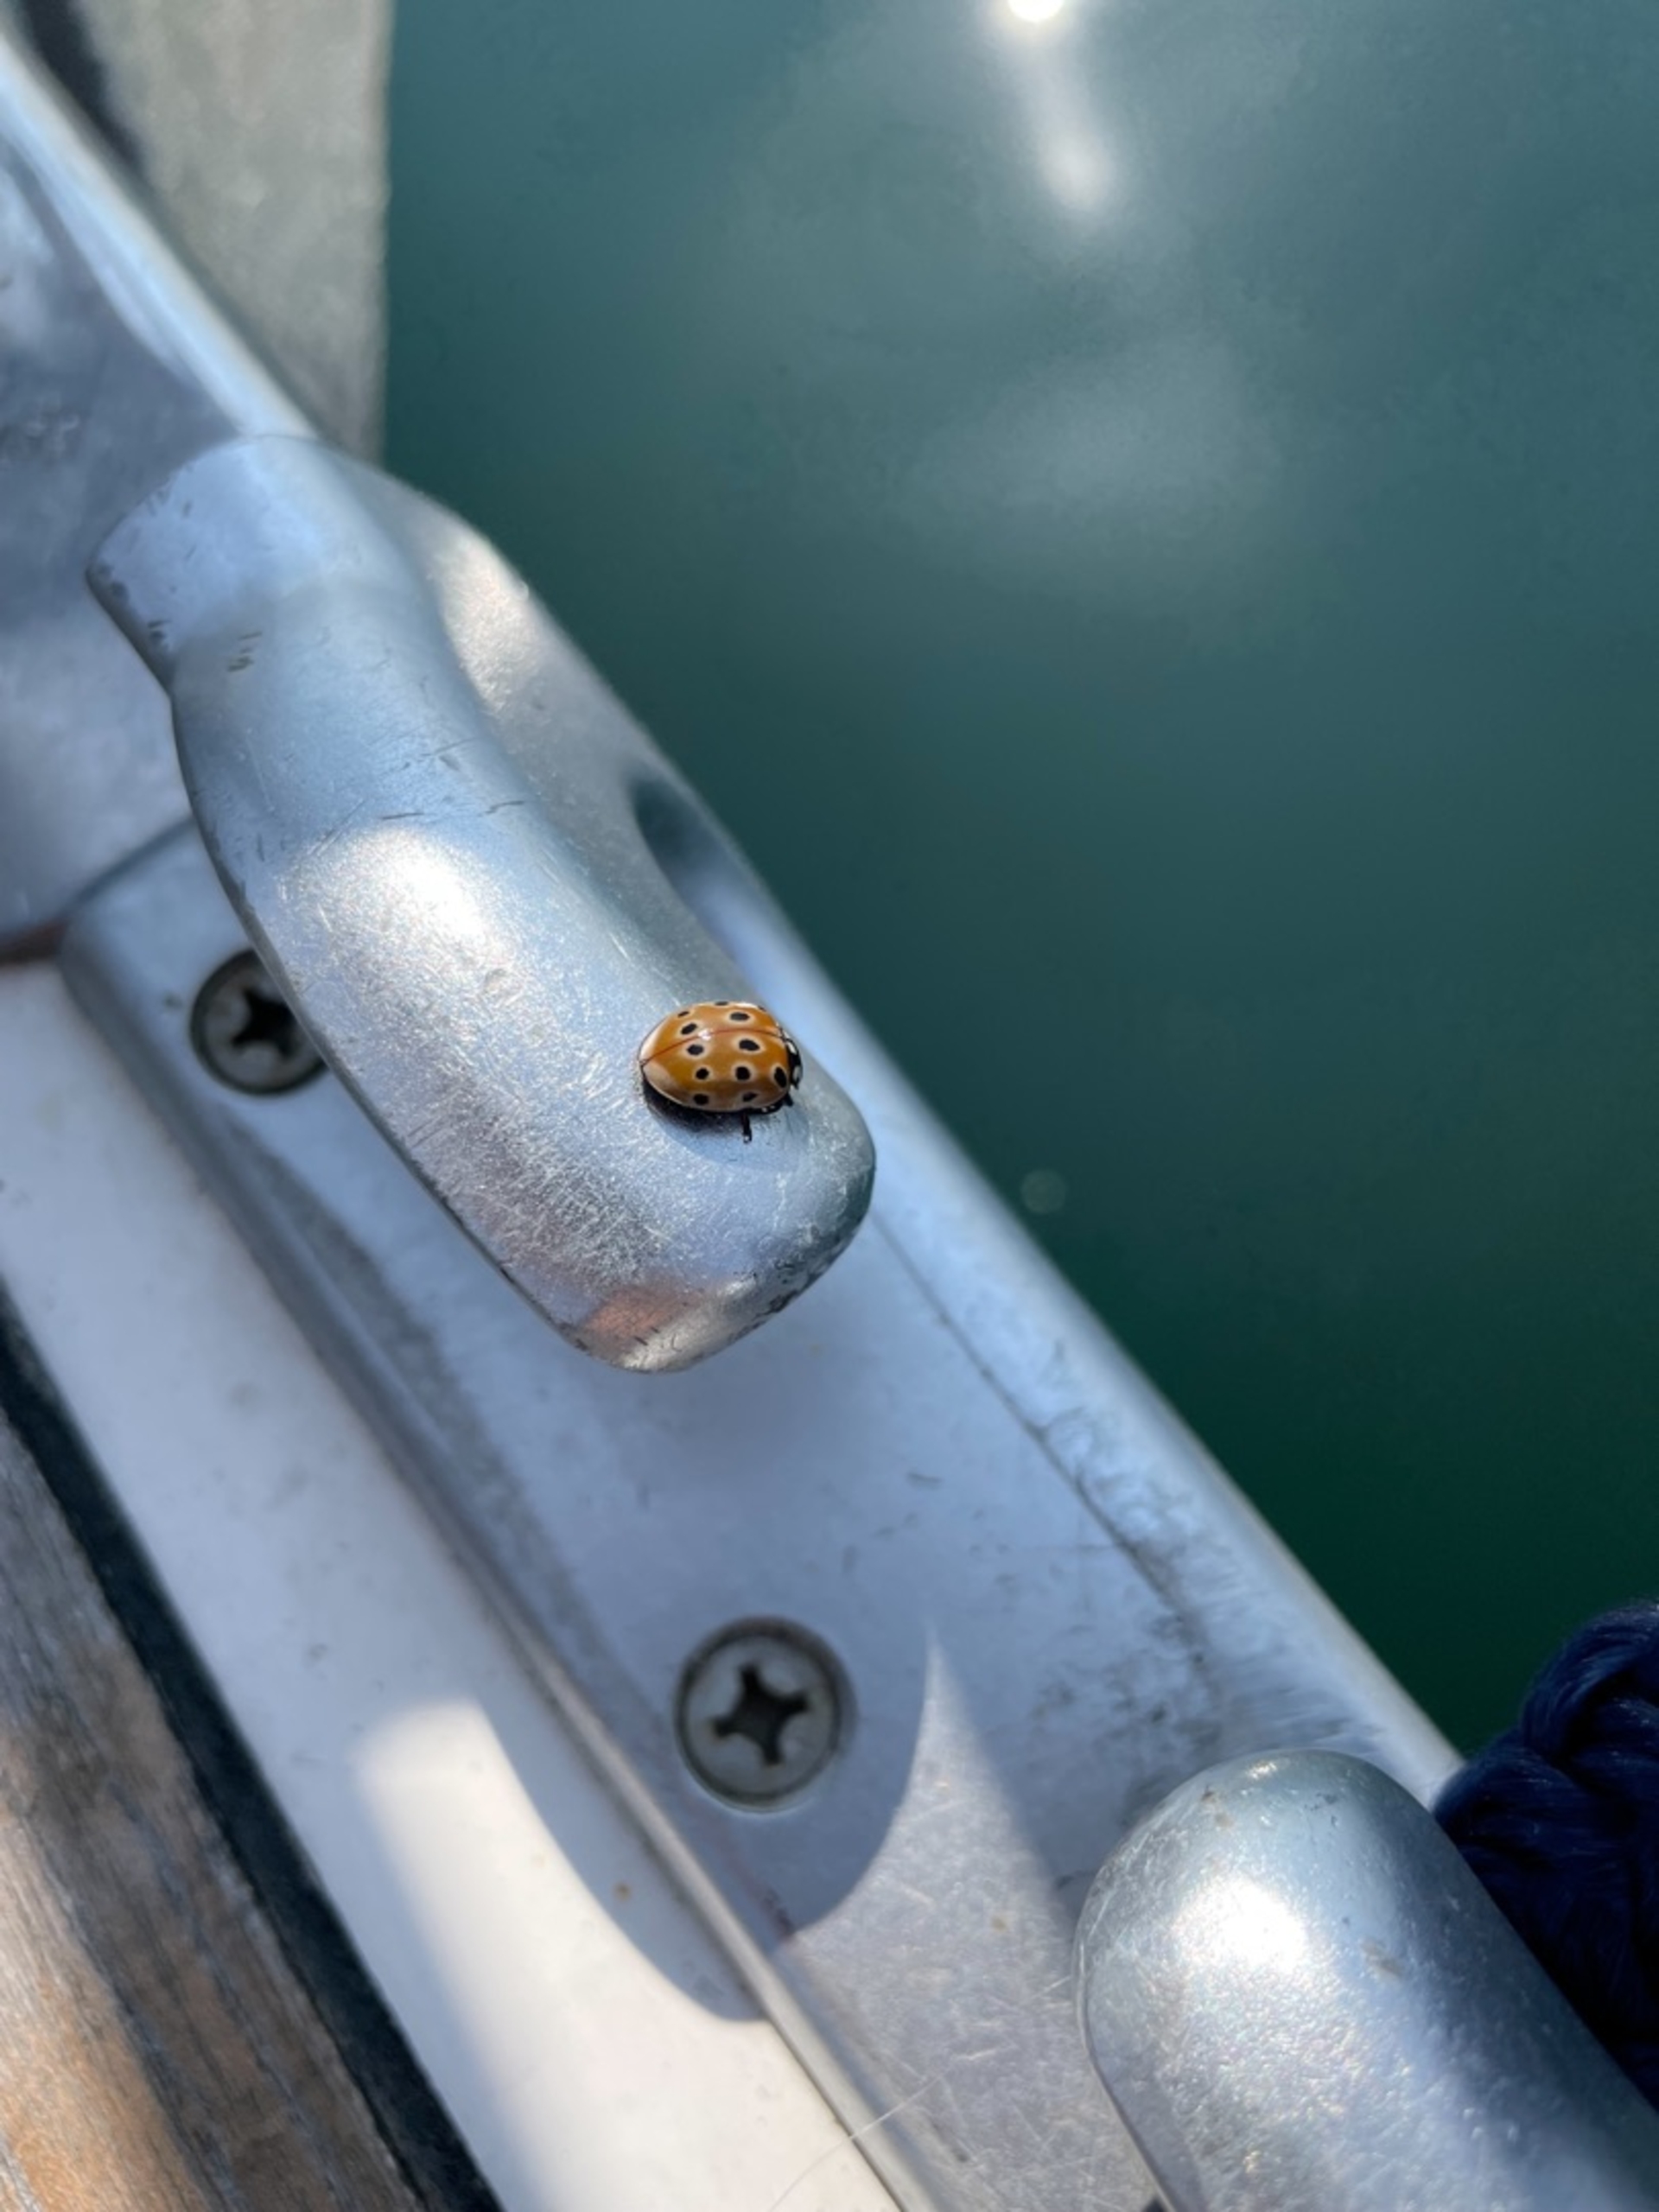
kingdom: Animalia
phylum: Arthropoda
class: Insecta
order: Coleoptera
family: Coccinellidae
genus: Anatis
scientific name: Anatis ocellata
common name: Øjeplettet mariehøne
